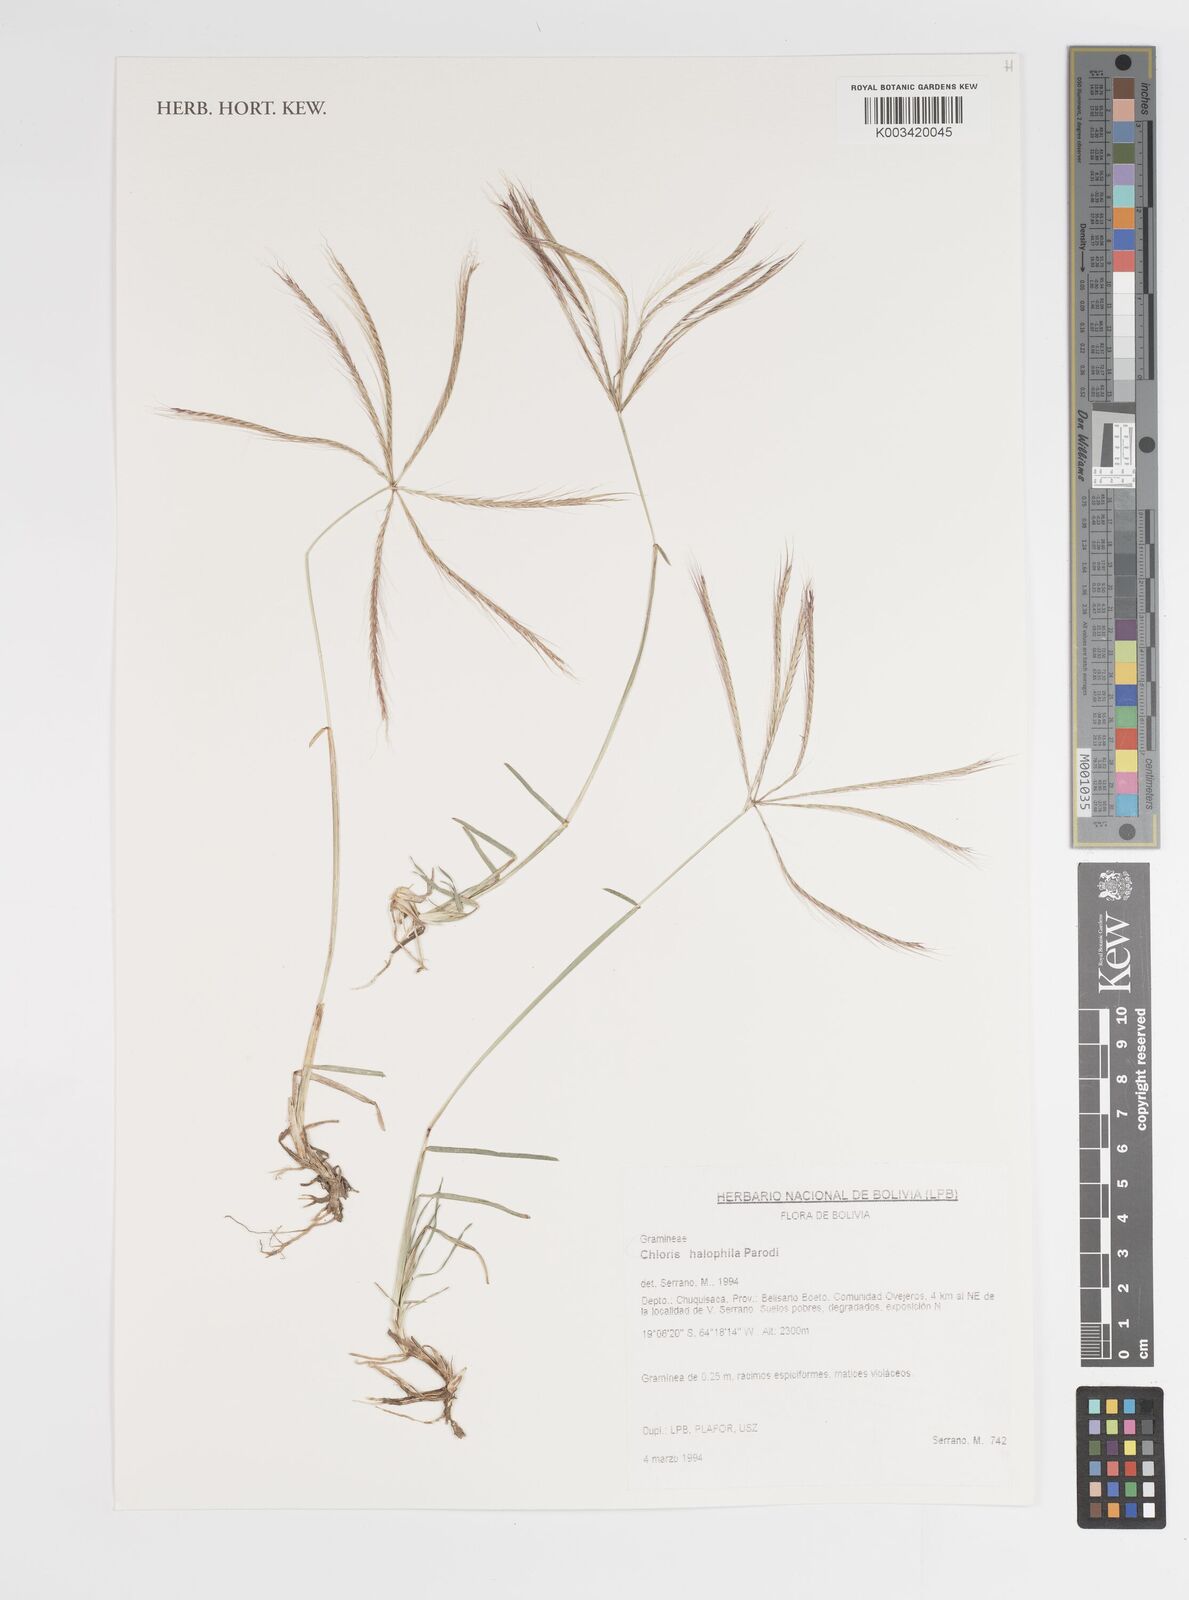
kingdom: Plantae
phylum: Tracheophyta
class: Liliopsida
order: Poales
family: Poaceae
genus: Chloris
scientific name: Chloris halophila
